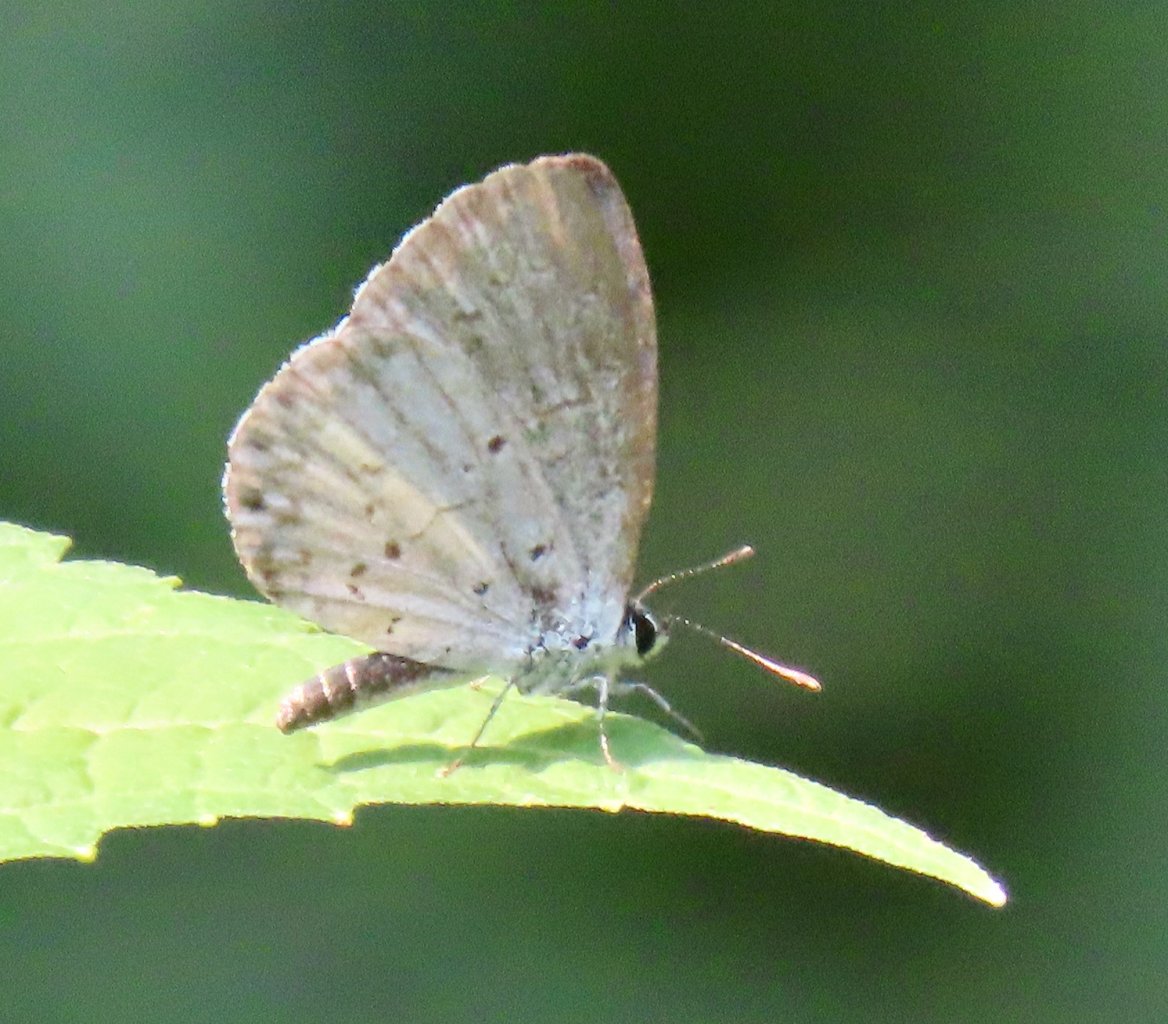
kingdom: Animalia
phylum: Arthropoda
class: Insecta
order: Lepidoptera
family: Lycaenidae
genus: Cyaniris
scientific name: Cyaniris neglecta
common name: Summer Azure
